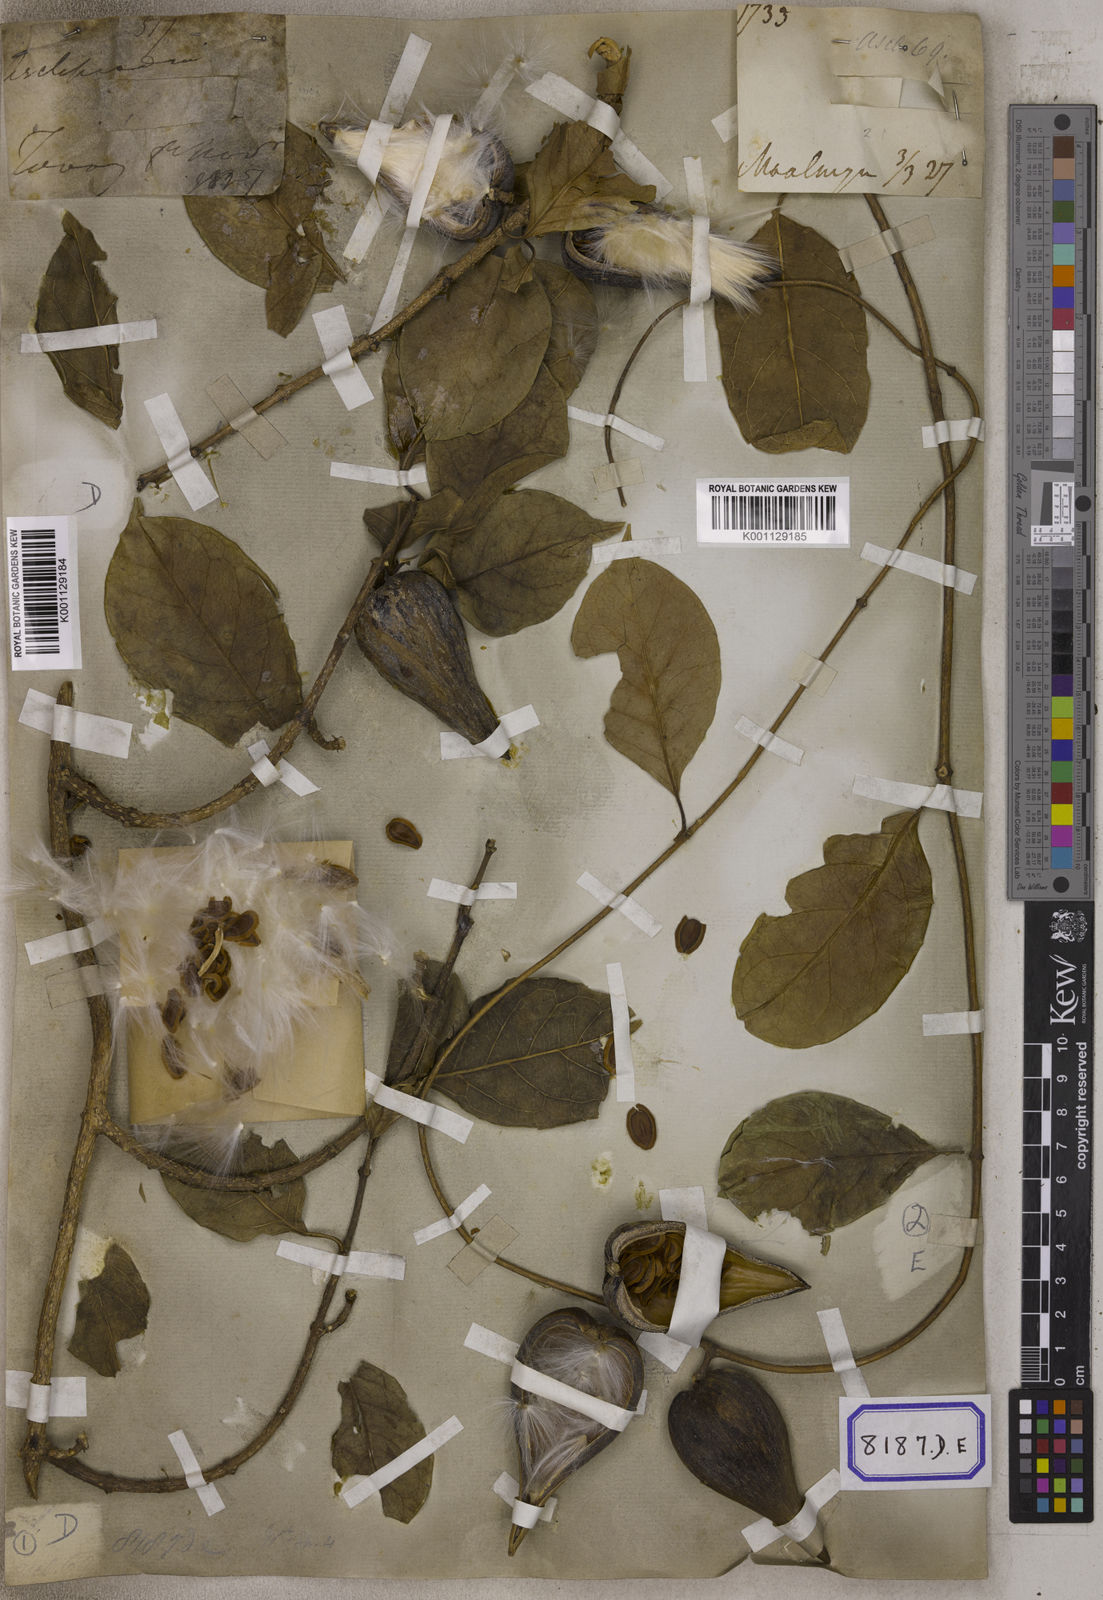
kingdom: Plantae
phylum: Tracheophyta
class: Magnoliopsida
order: Gentianales
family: Apocynaceae
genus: Gymnema
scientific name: Gymnema acuminatum
